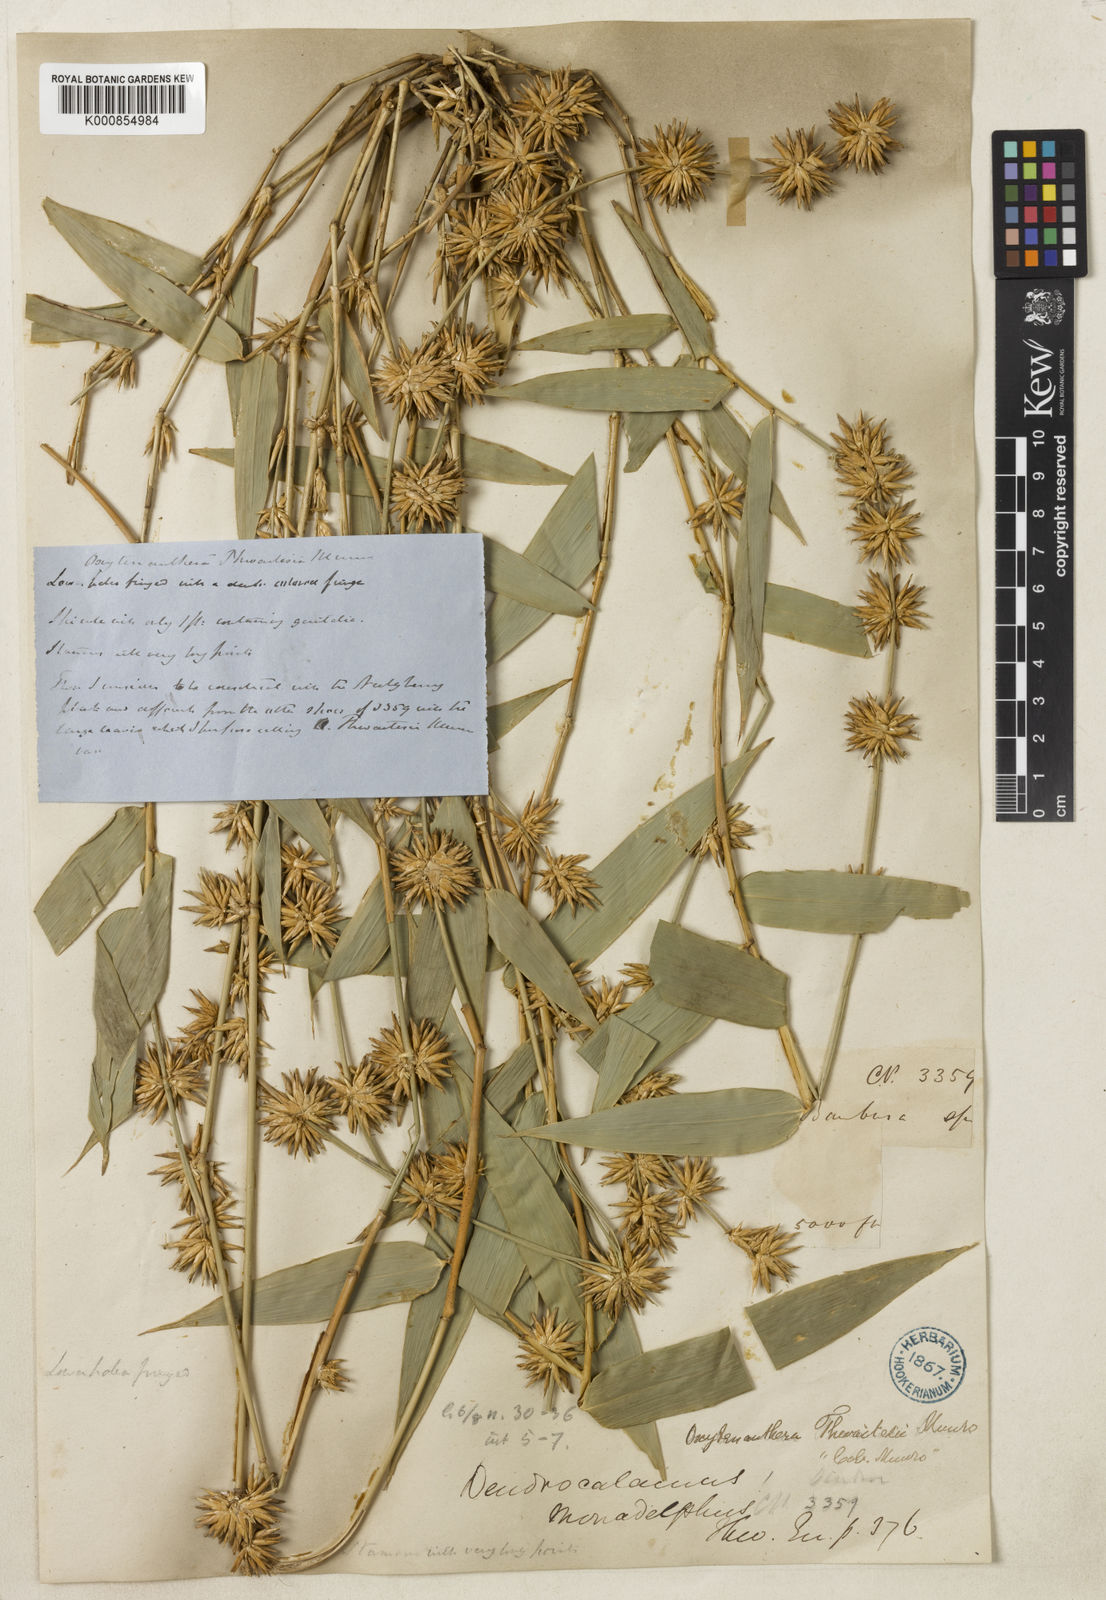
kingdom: Plantae
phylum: Tracheophyta
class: Liliopsida
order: Poales
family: Poaceae
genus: Pseudoxytenanthera
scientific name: Pseudoxytenanthera monadelpha
